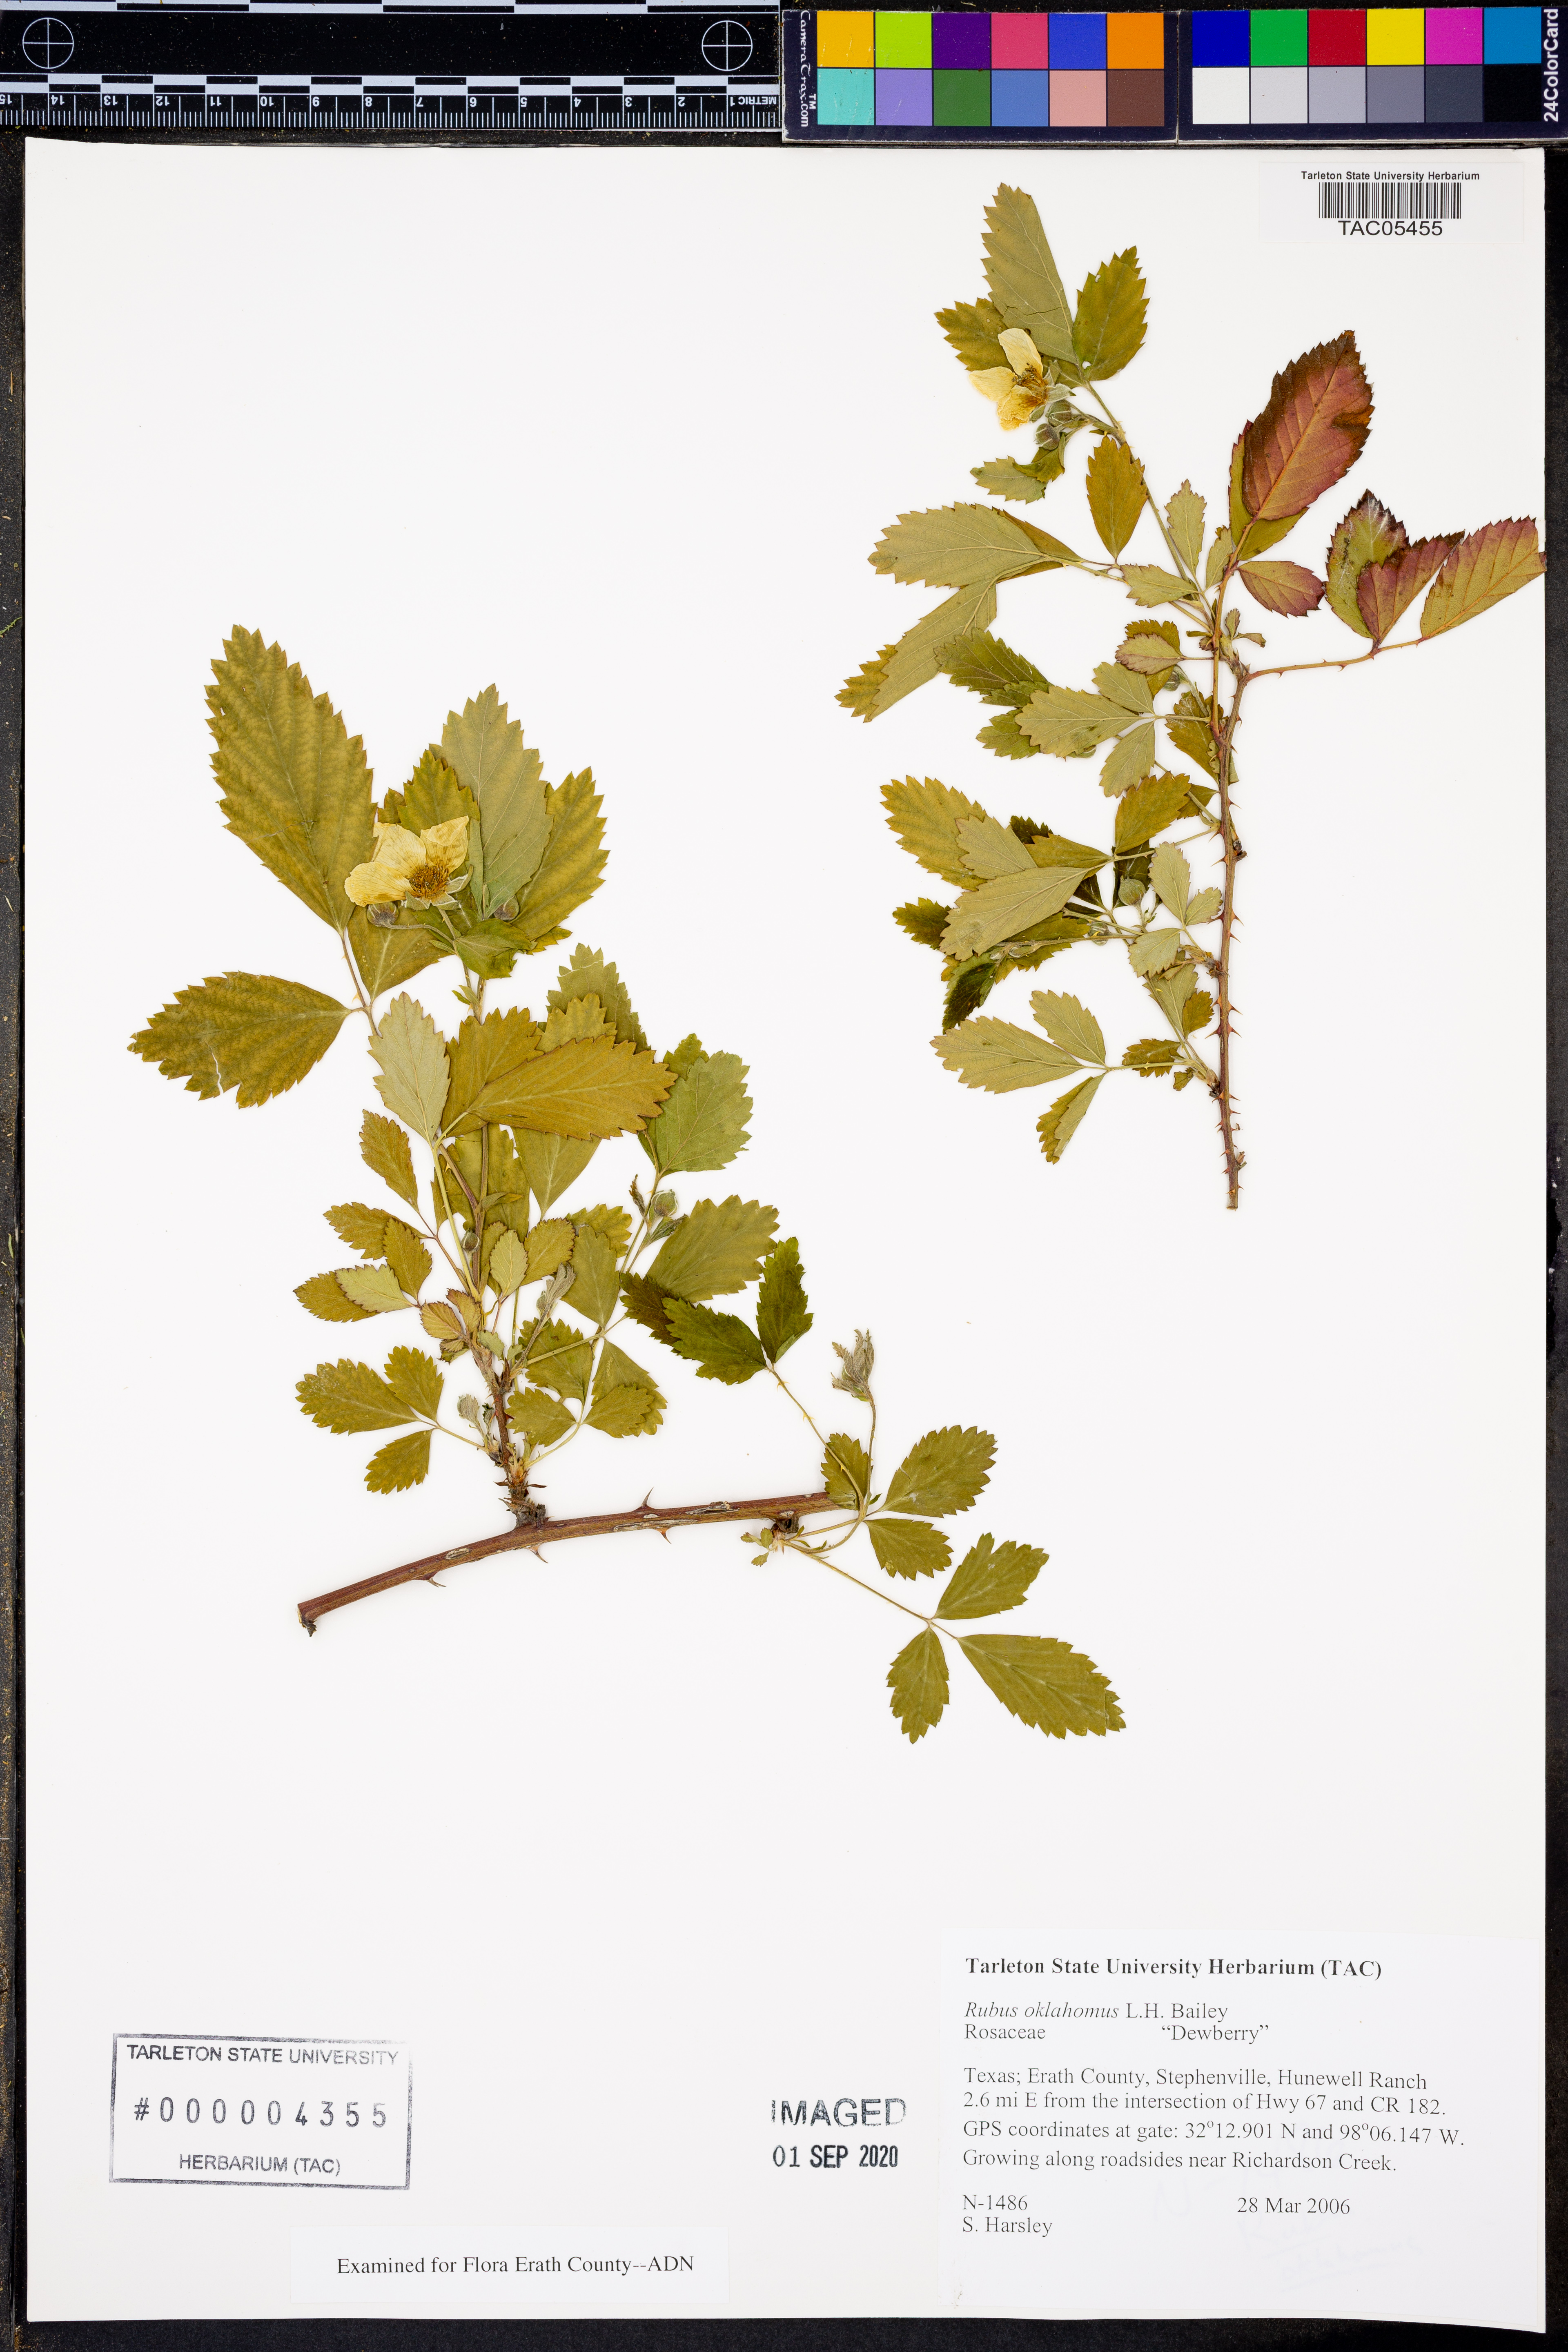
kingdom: Plantae
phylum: Tracheophyta
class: Magnoliopsida
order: Rosales
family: Rosaceae
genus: Rubus
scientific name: Rubus oklahomus
